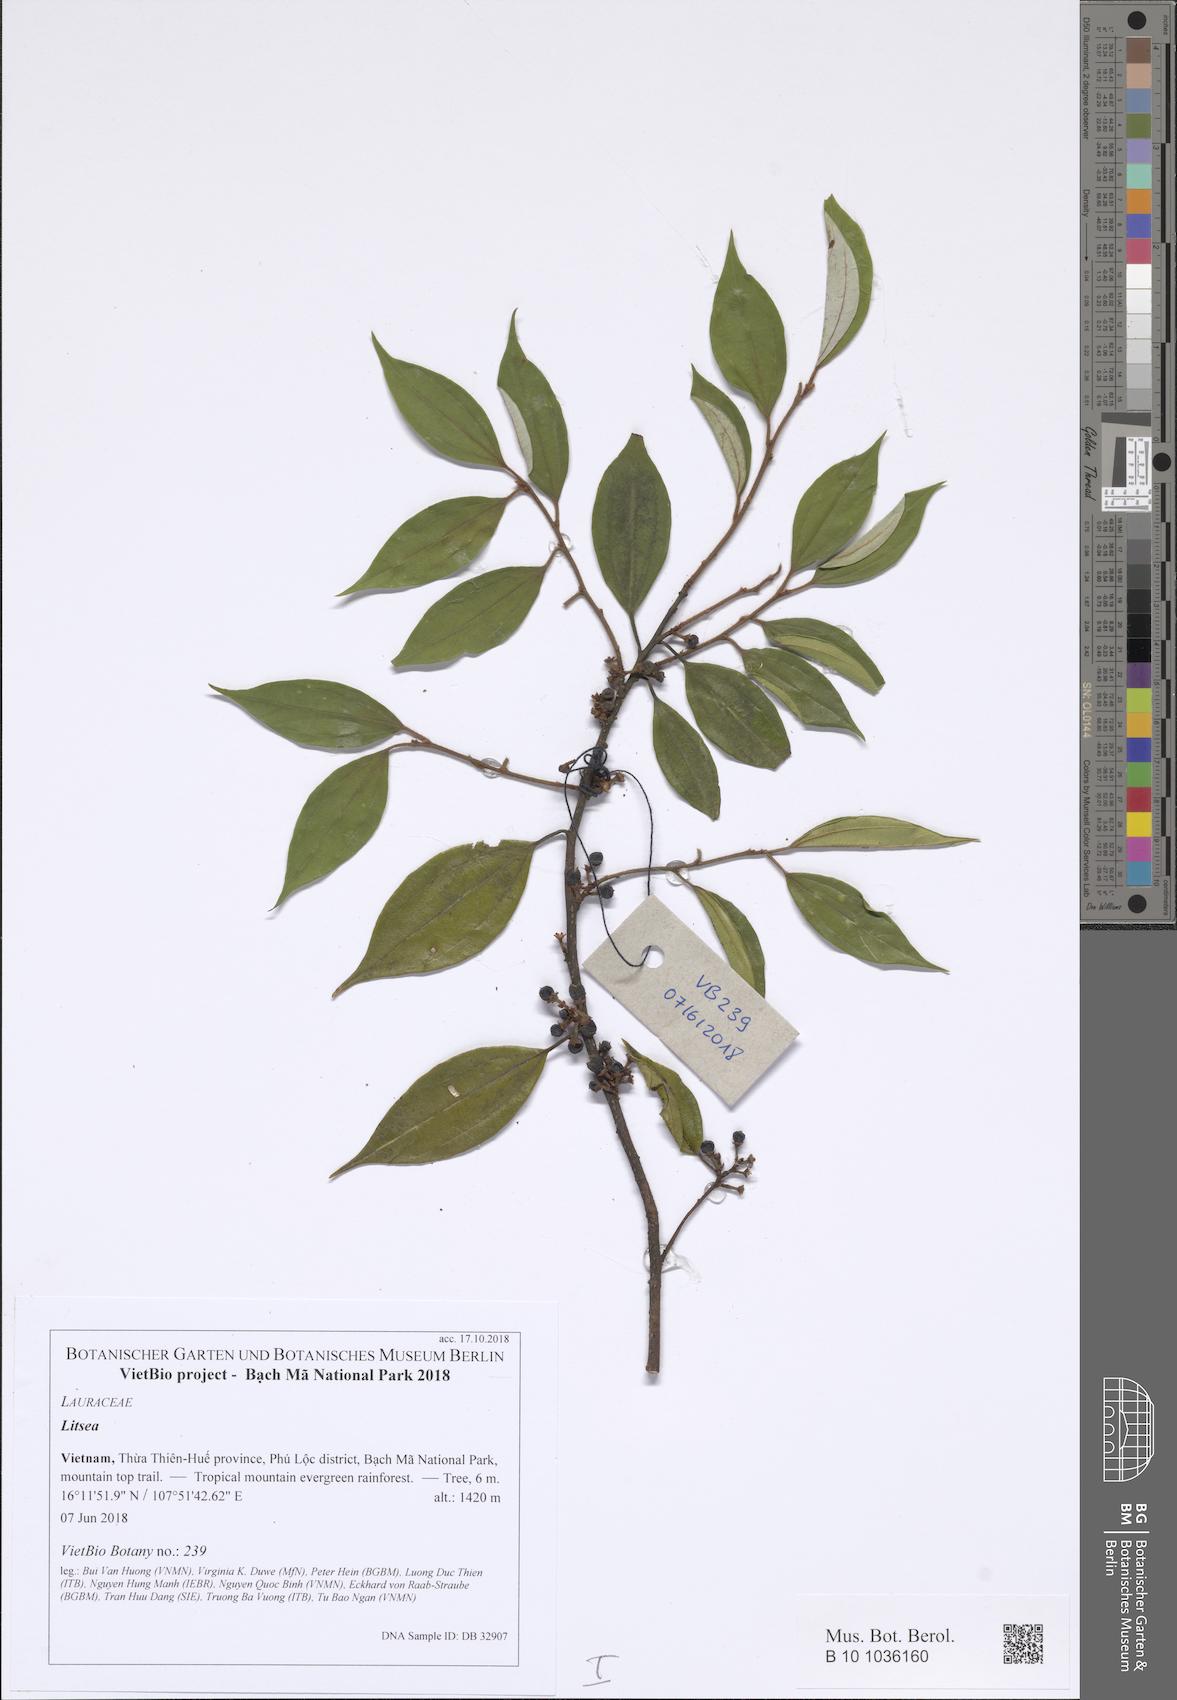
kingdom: Plantae
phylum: Tracheophyta
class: Magnoliopsida
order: Laurales
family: Lauraceae
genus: Lindera
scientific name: Lindera caudata
